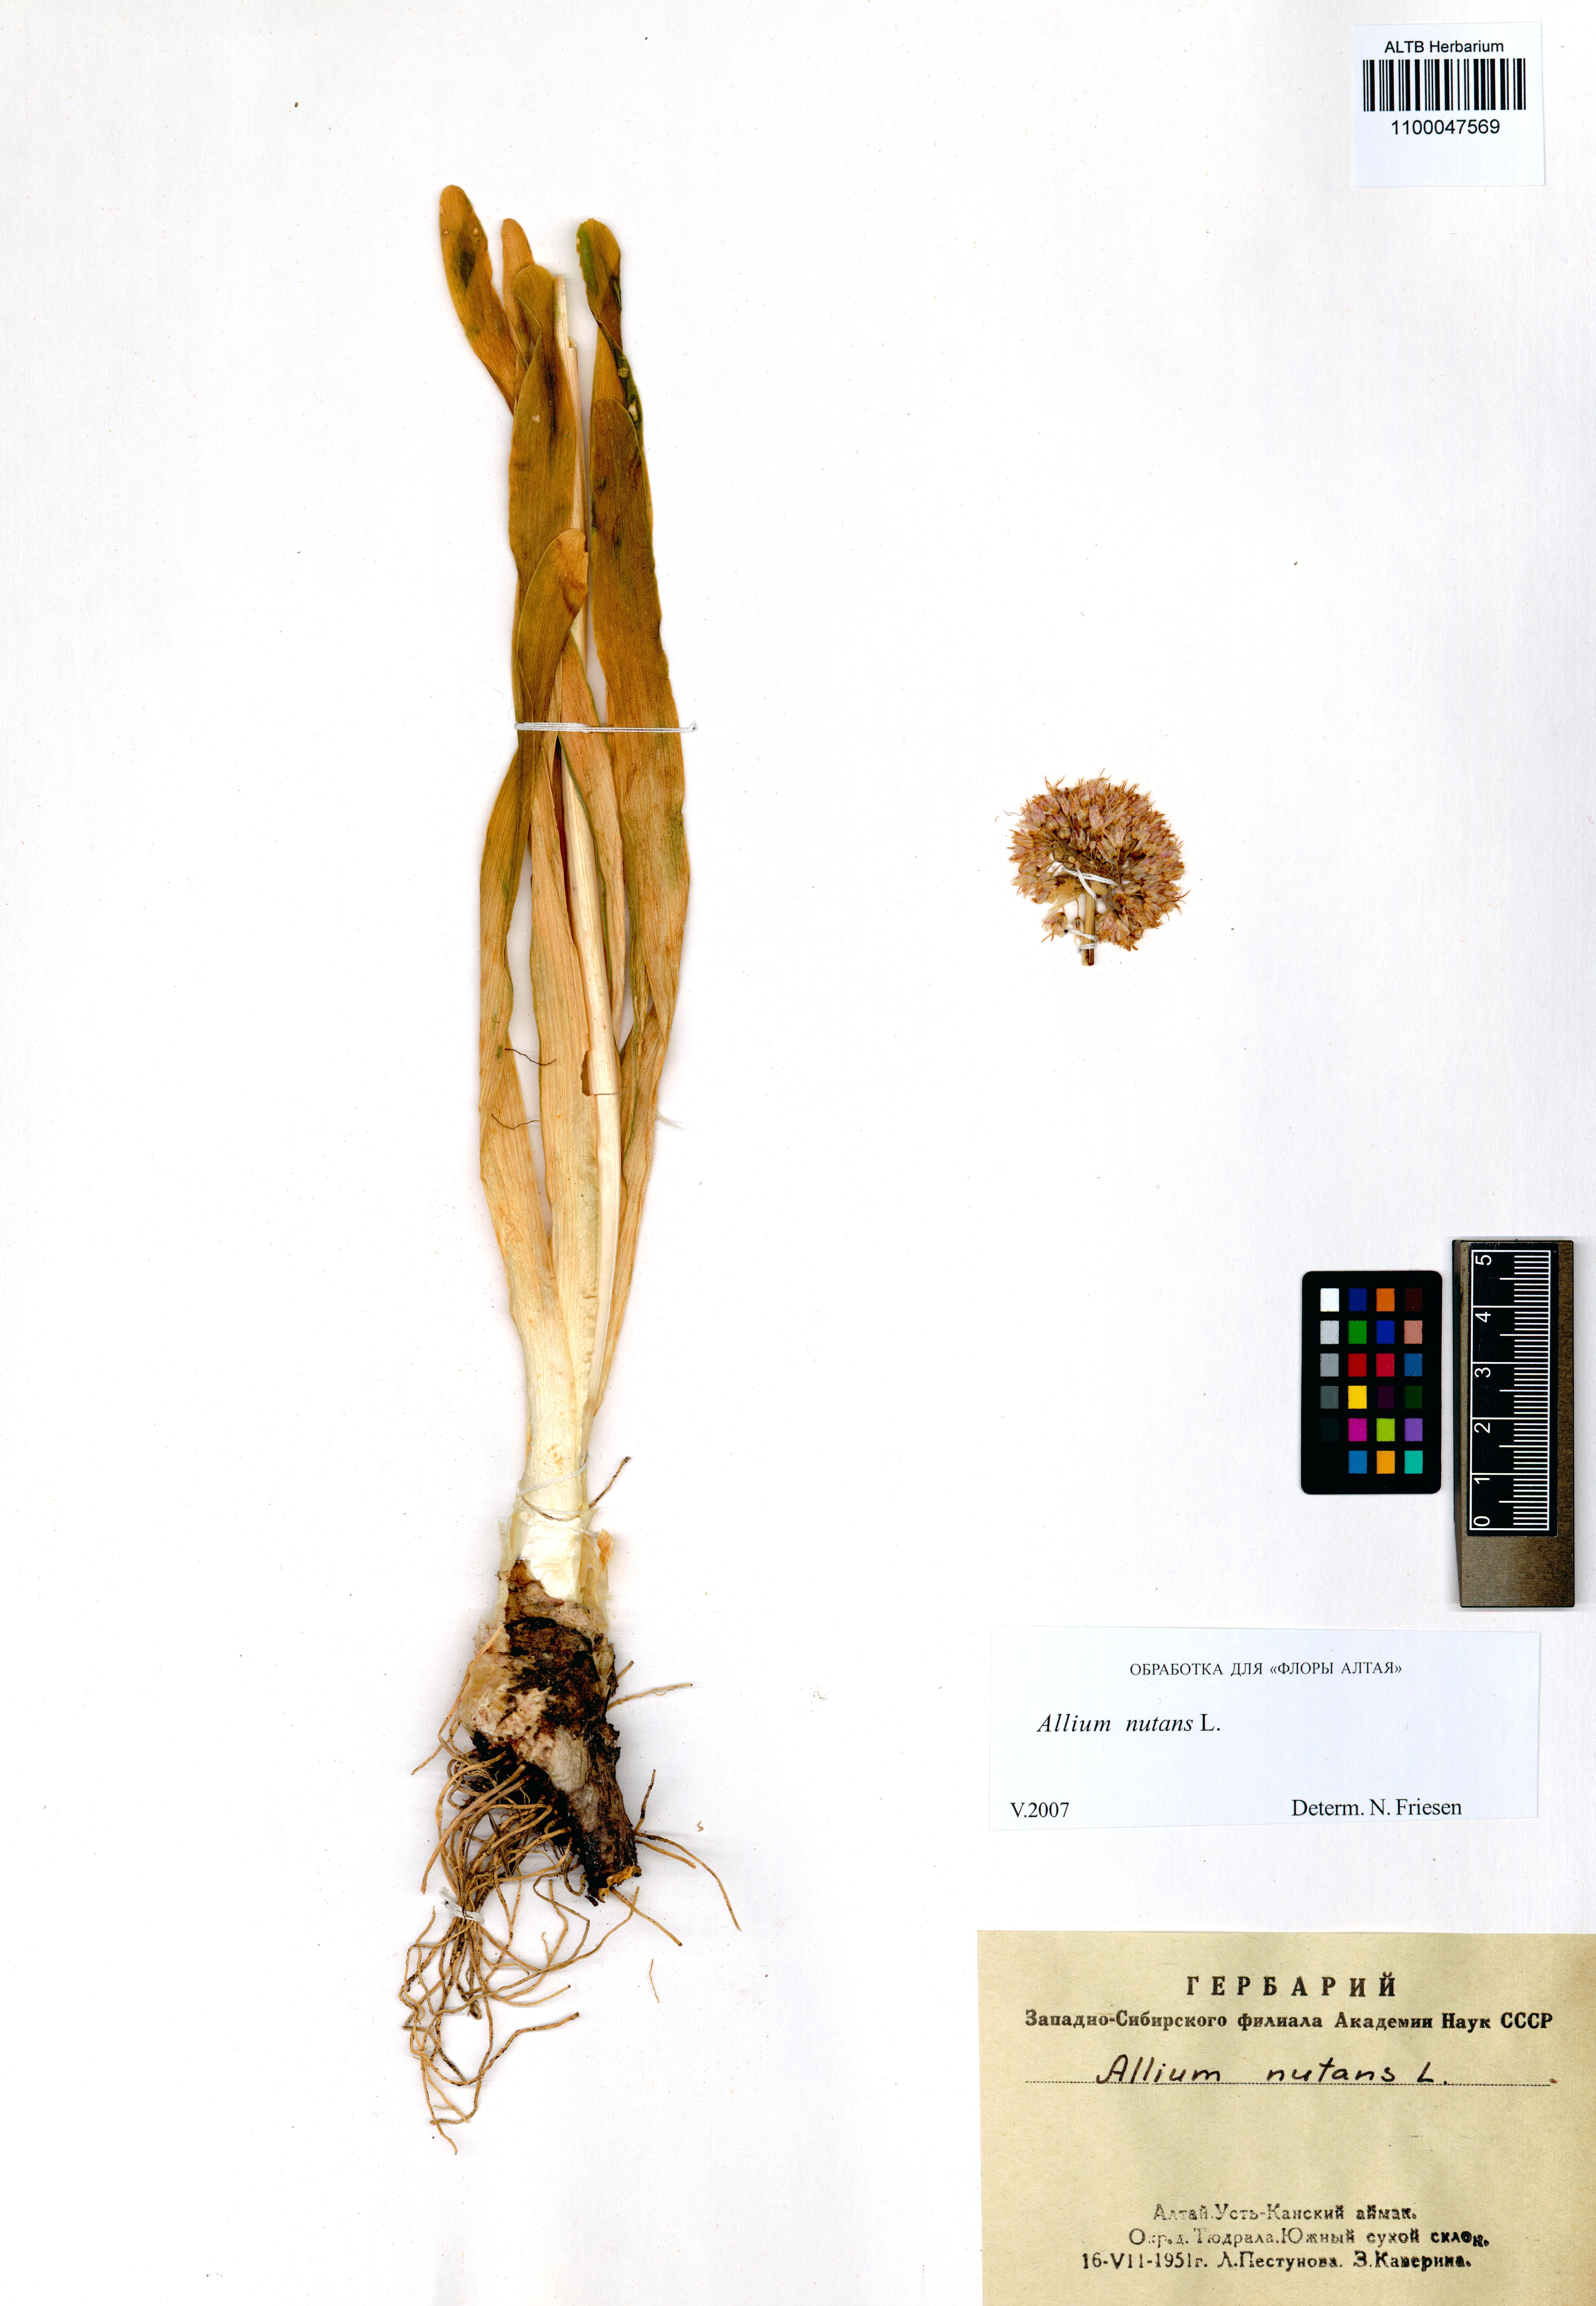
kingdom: Plantae
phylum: Tracheophyta
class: Liliopsida
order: Asparagales
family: Amaryllidaceae
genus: Allium
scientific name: Allium nutans
